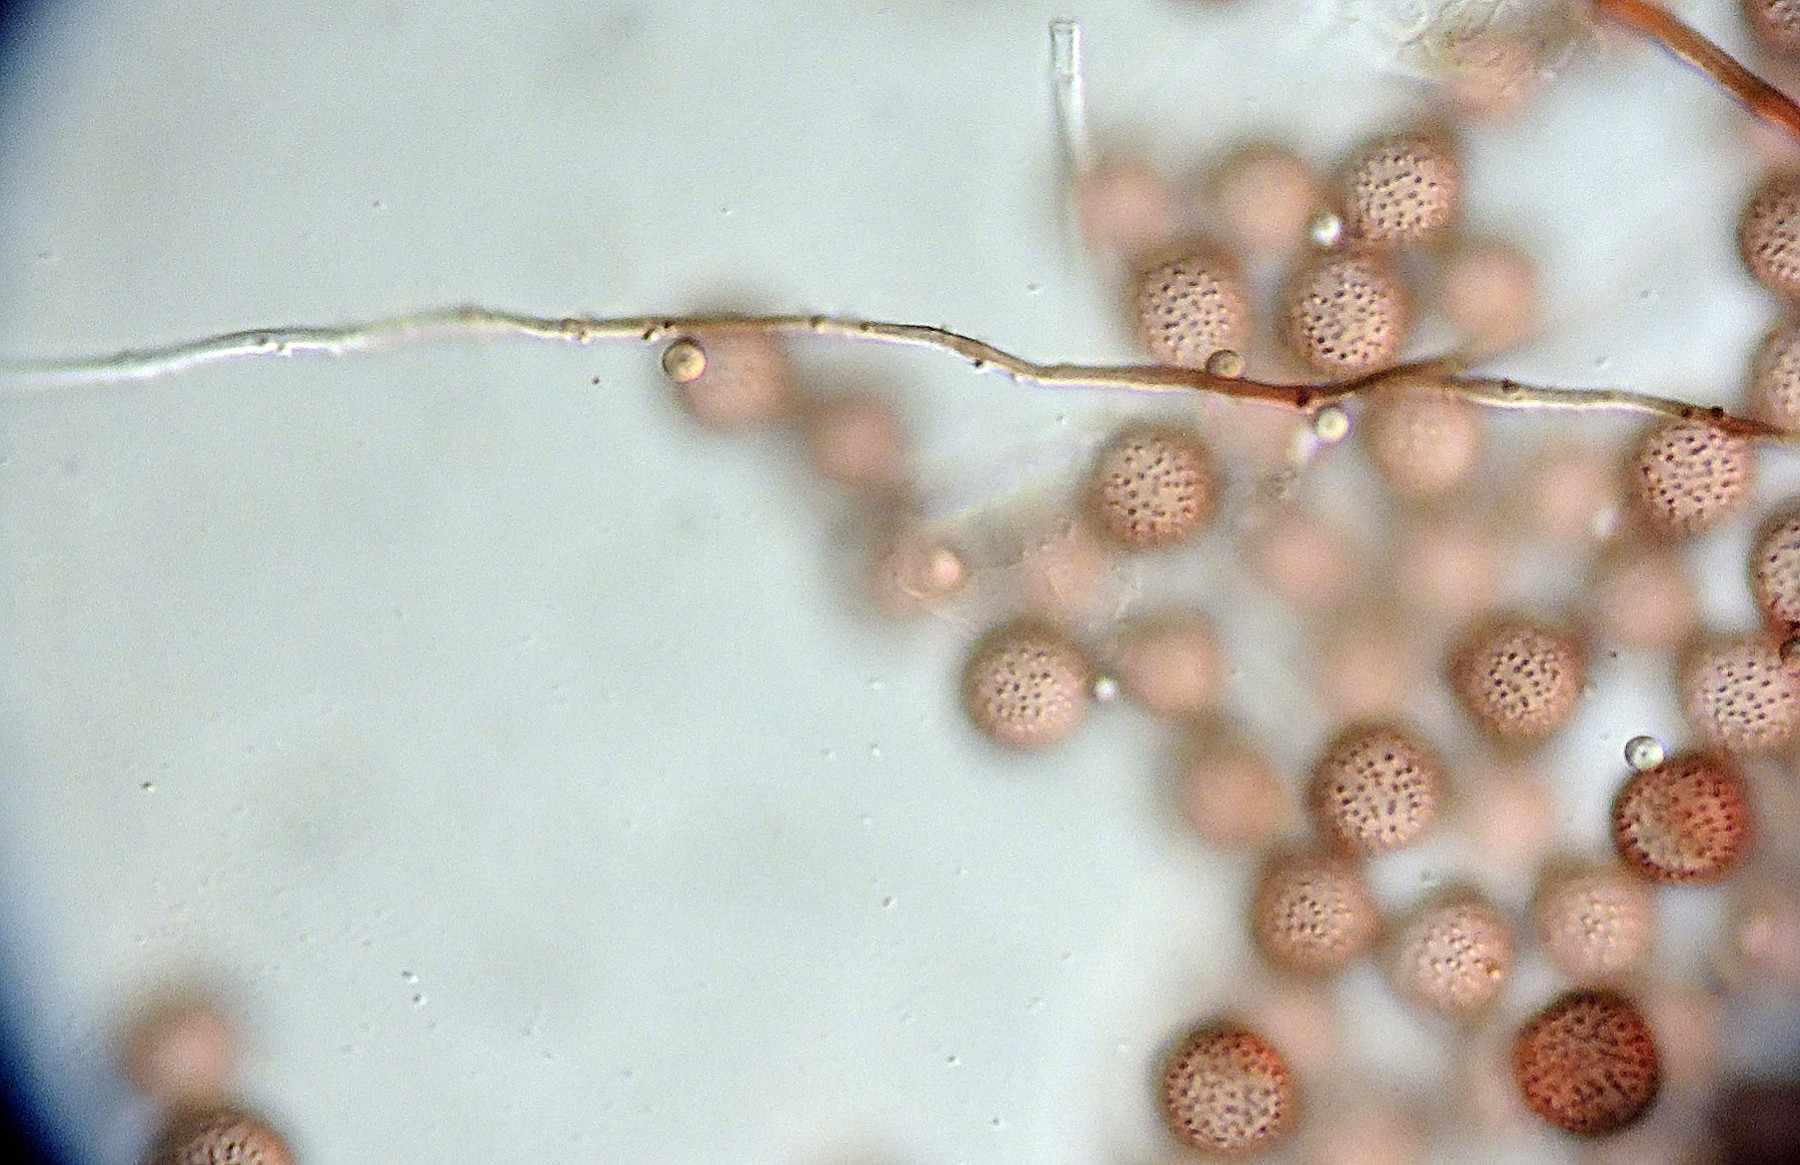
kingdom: Protozoa
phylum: Mycetozoa
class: Myxomycetes
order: Physarales
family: Didymiaceae
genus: Diderma
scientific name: Diderma spumarioides
